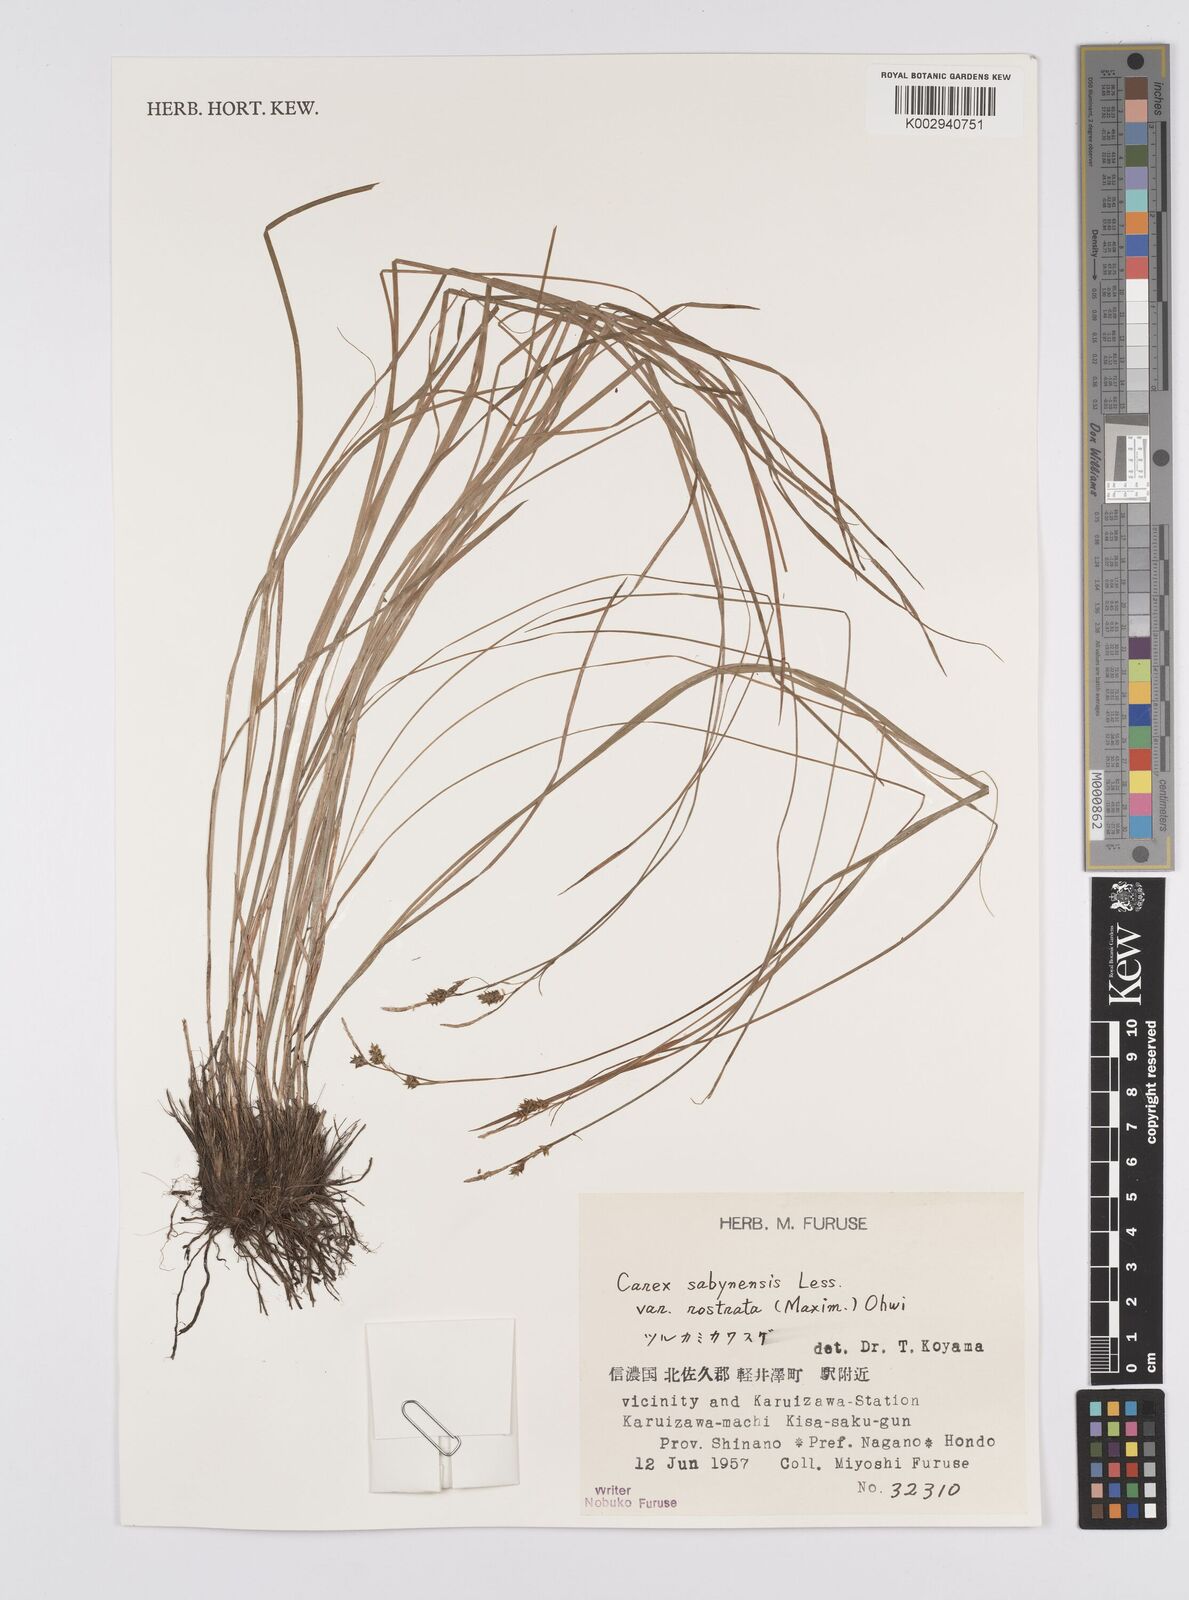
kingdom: Plantae
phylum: Tracheophyta
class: Liliopsida
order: Poales
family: Cyperaceae
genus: Carex
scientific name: Carex umbrosa
